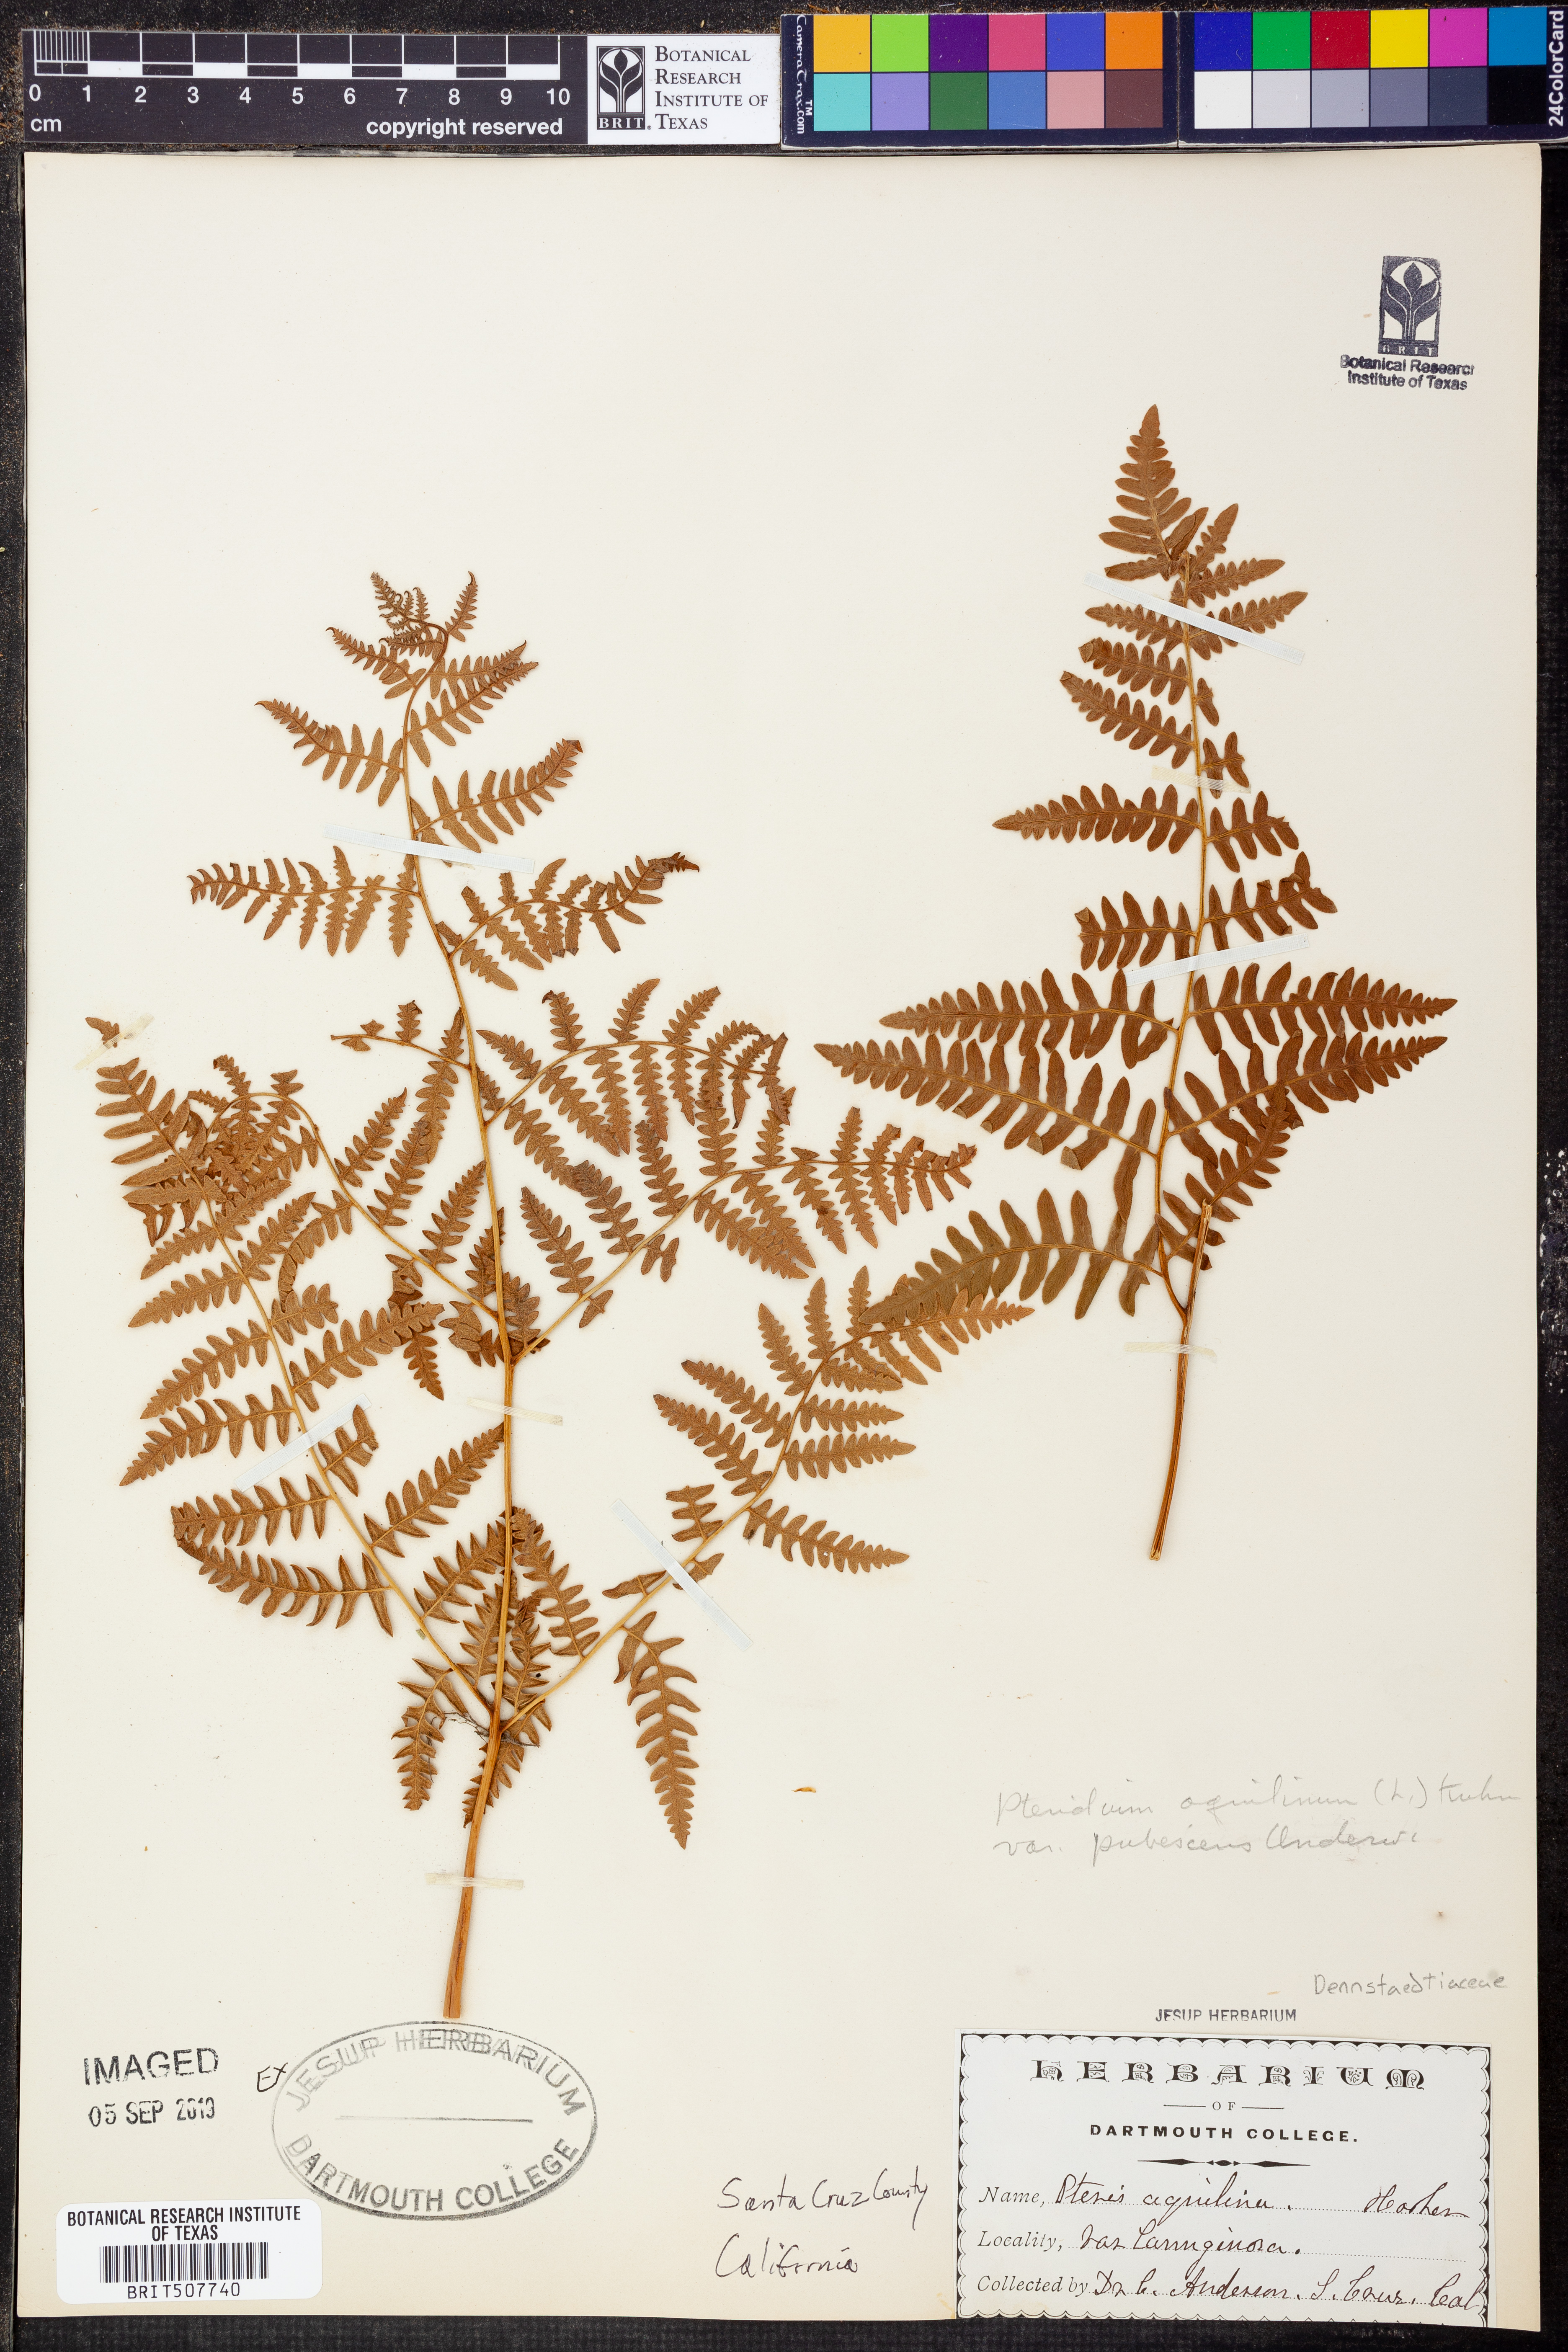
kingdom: Plantae
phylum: Tracheophyta
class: Polypodiopsida
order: Polypodiales
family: Dennstaedtiaceae
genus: Pteridium
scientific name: Pteridium aquilinum
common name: Bracken
